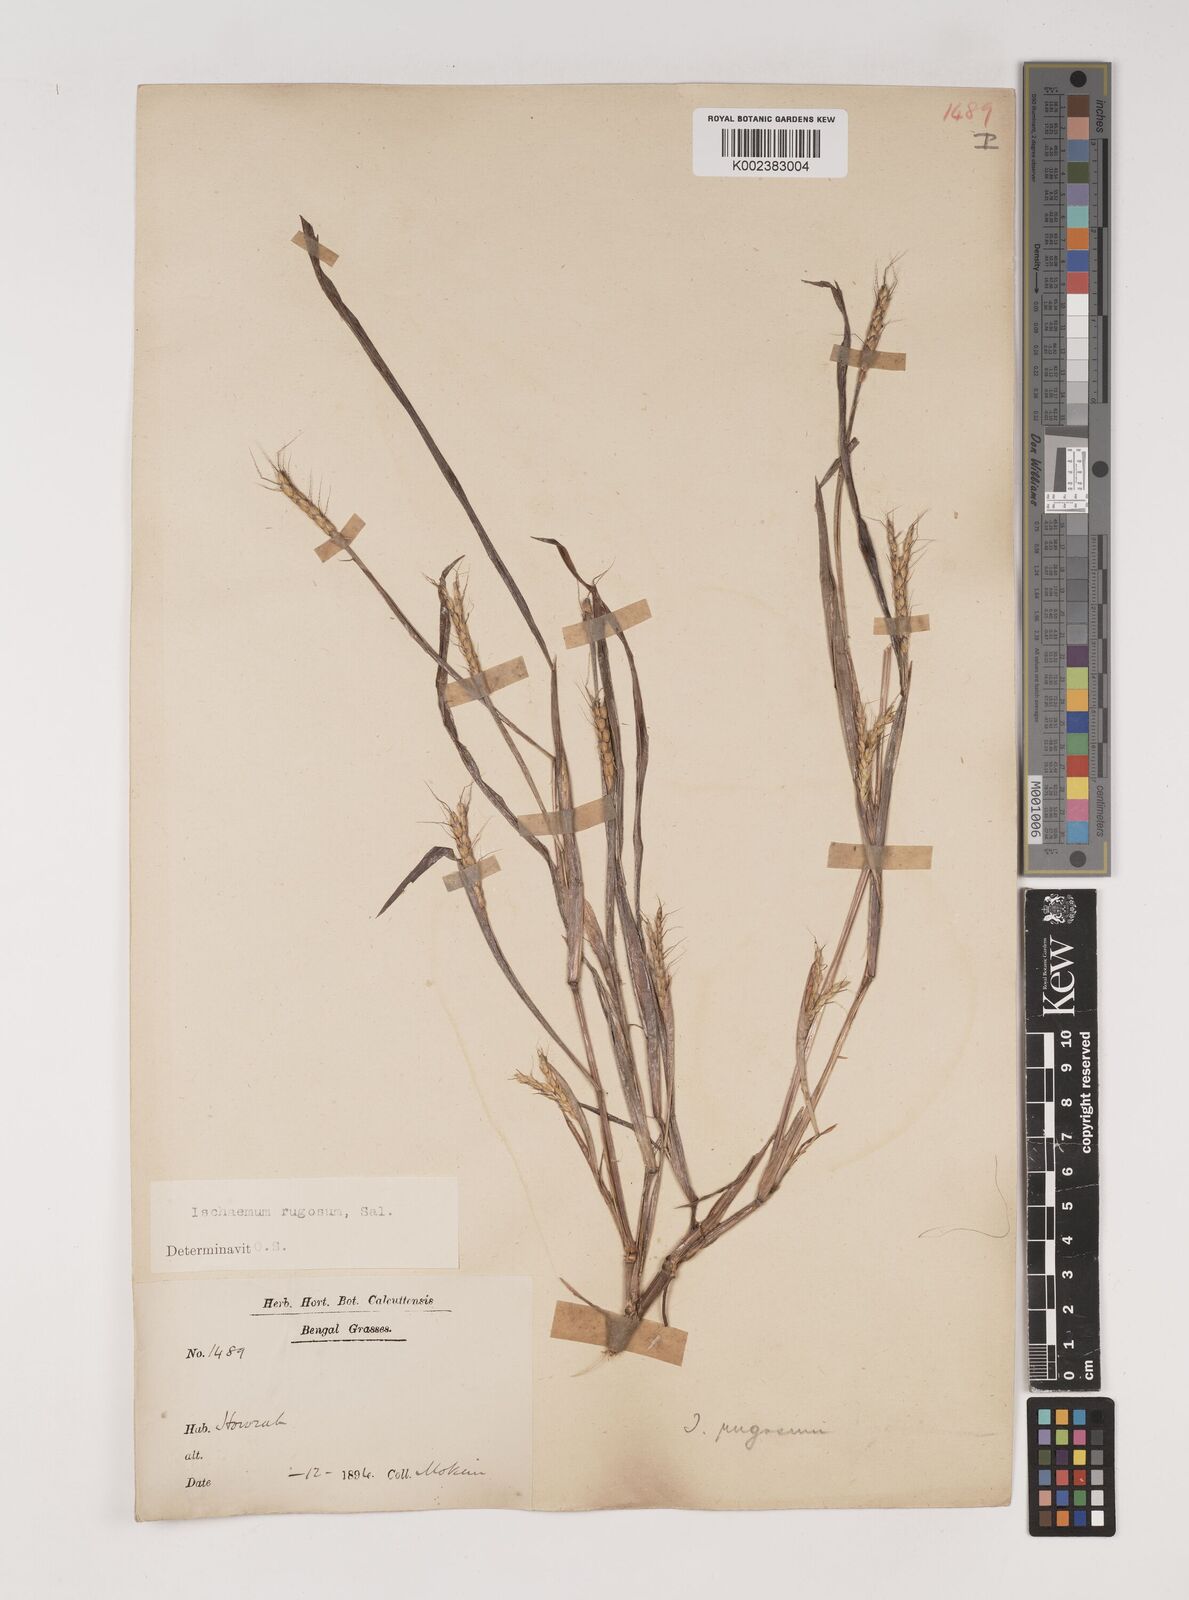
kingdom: Plantae
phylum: Tracheophyta
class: Liliopsida
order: Poales
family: Poaceae
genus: Ischaemum
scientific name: Ischaemum rugosum
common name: Saramatta grass
